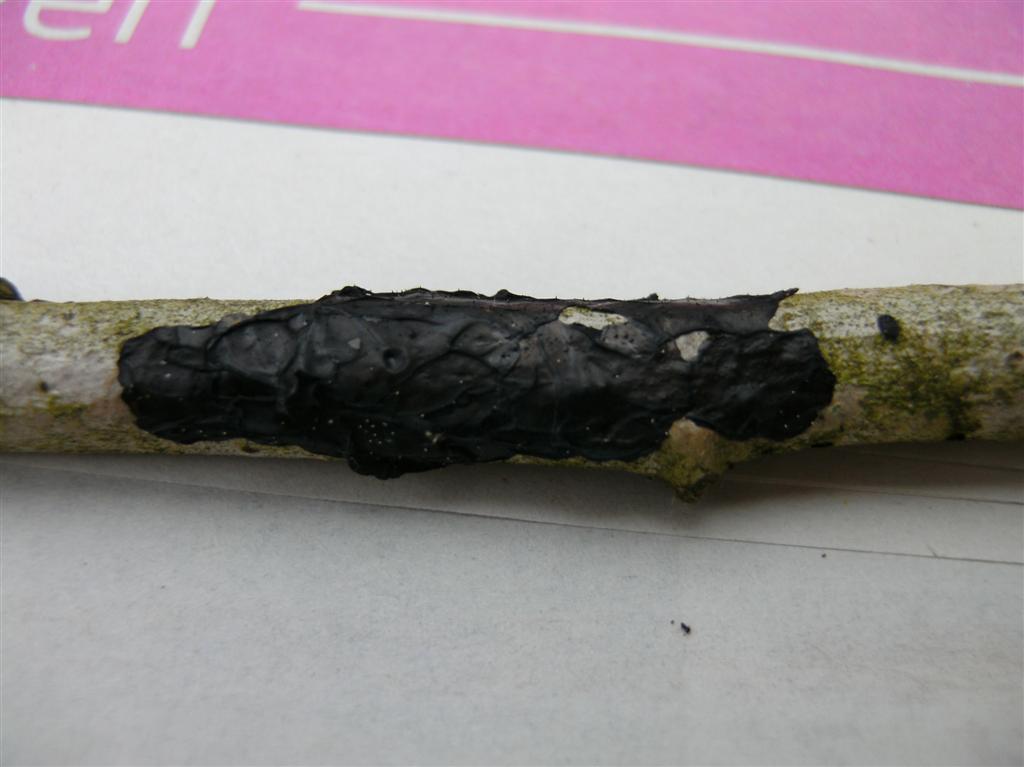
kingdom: Fungi
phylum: Basidiomycota
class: Agaricomycetes
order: Auriculariales
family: Auriculariaceae
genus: Exidia
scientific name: Exidia nigricans
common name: almindelig bævretop
